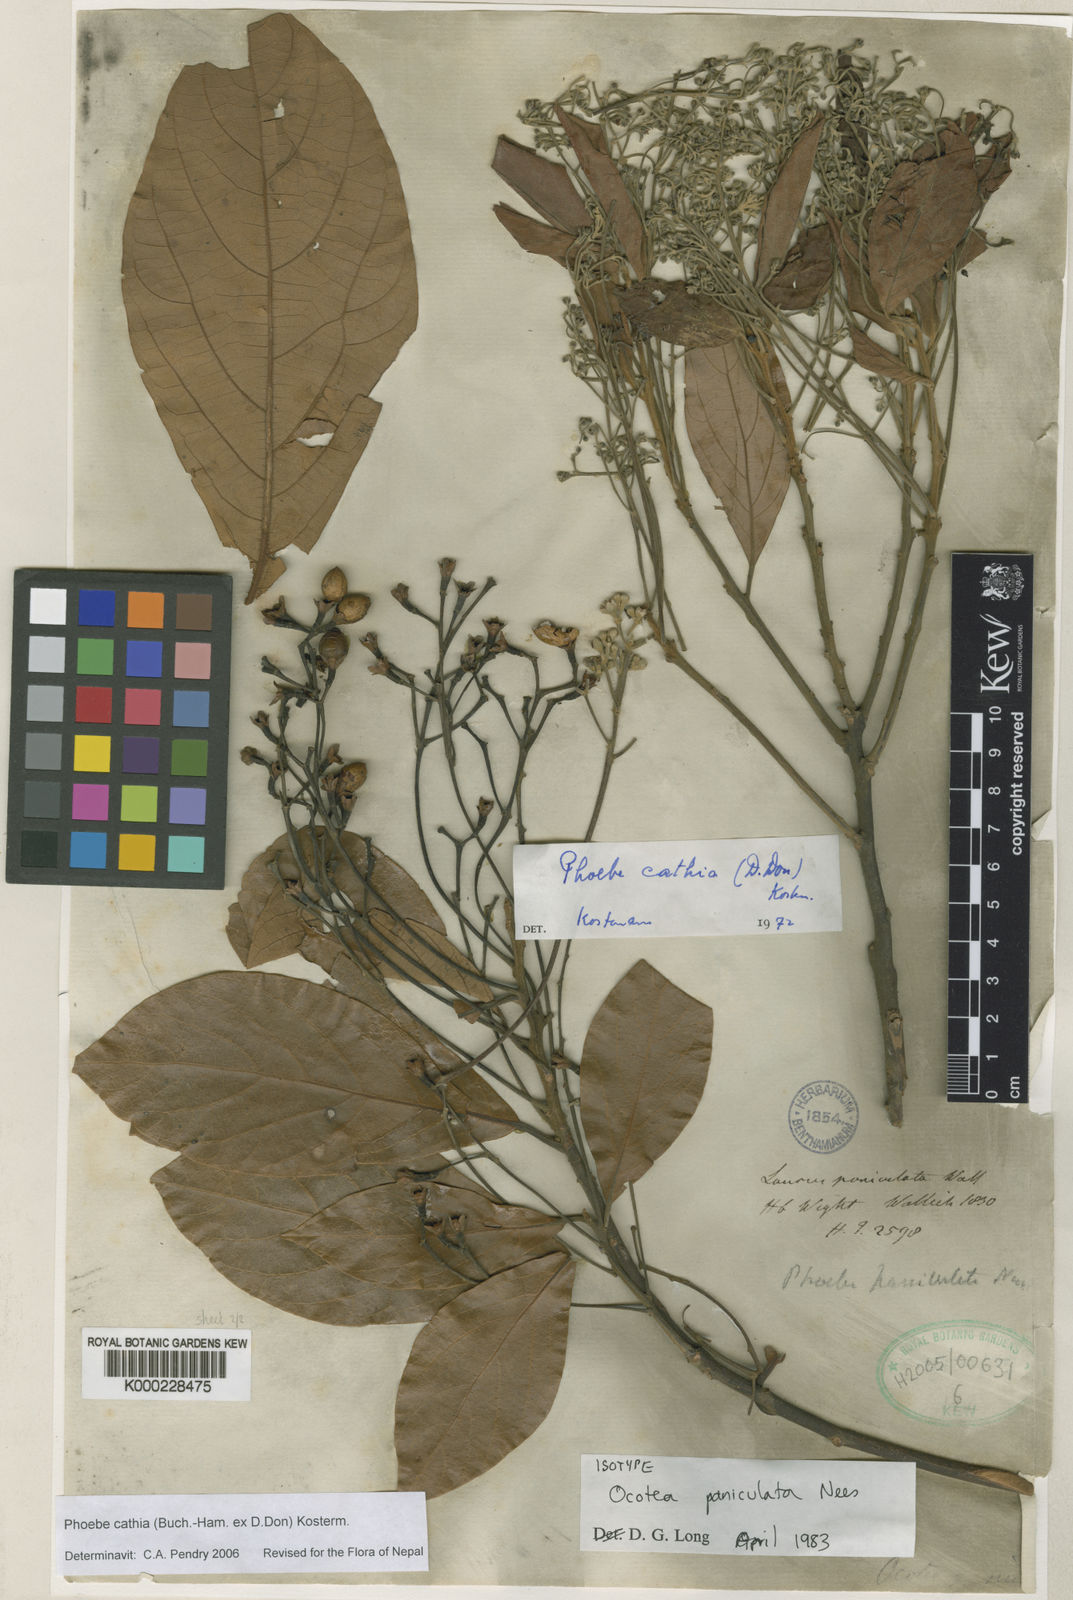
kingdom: Plantae
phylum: Tracheophyta
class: Magnoliopsida
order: Laurales
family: Lauraceae
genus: Phoebe
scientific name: Phoebe cathia
